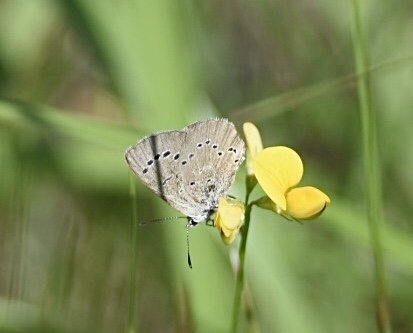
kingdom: Animalia
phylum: Arthropoda
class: Insecta
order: Lepidoptera
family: Lycaenidae
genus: Glaucopsyche
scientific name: Glaucopsyche lygdamus
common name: Silvery Blue
